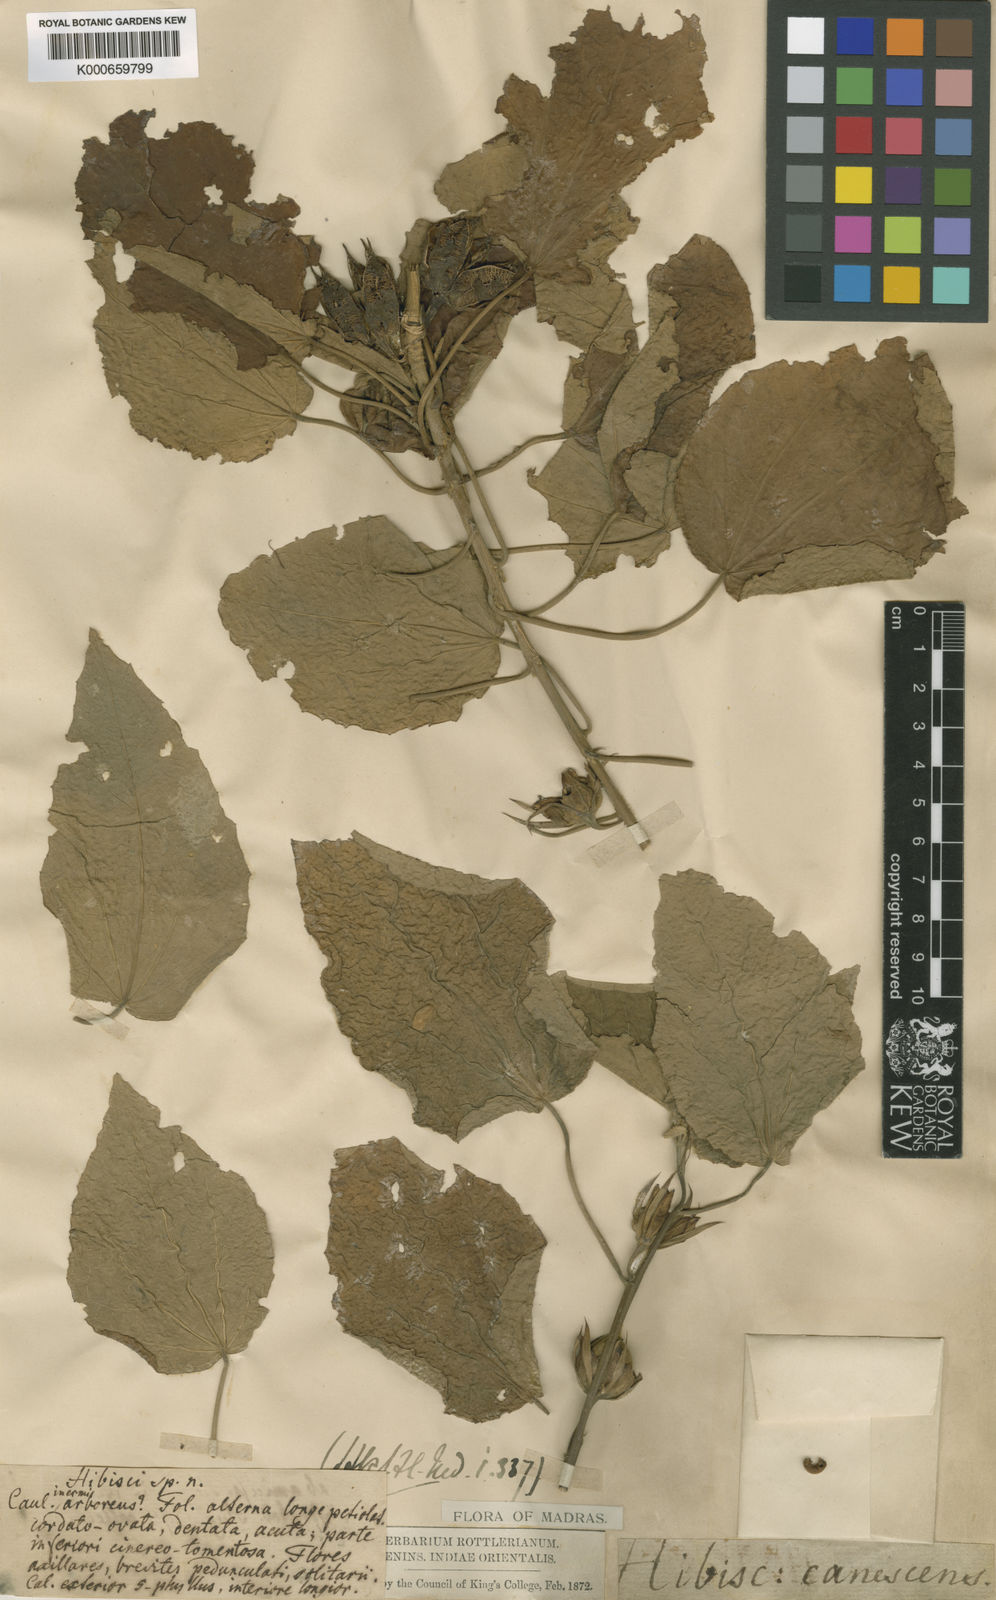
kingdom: Plantae
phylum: Tracheophyta
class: Magnoliopsida
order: Malvales
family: Malvaceae
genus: Hibiscus
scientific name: Hibiscus
